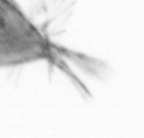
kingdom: Animalia
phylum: Arthropoda
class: Maxillopoda
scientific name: Maxillopoda
